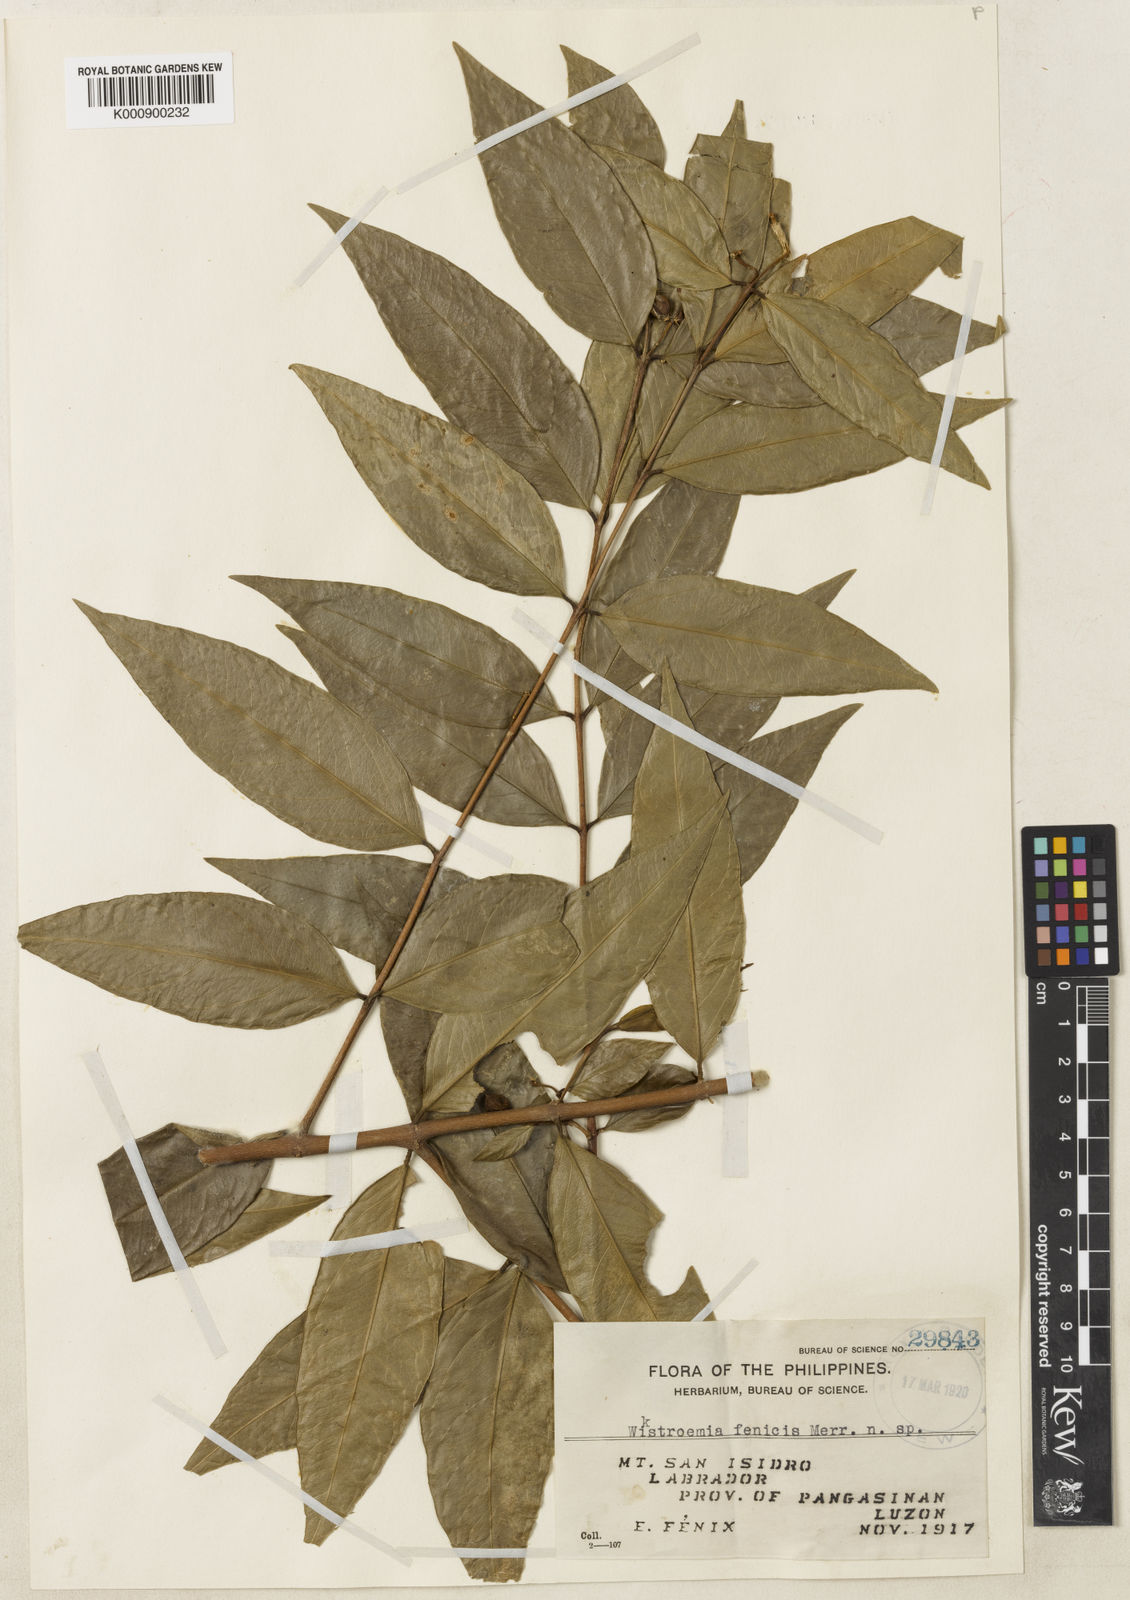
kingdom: Plantae
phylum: Tracheophyta
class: Magnoliopsida
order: Malvales
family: Thymelaeaceae
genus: Wikstroemia
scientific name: Wikstroemia meyeniana
